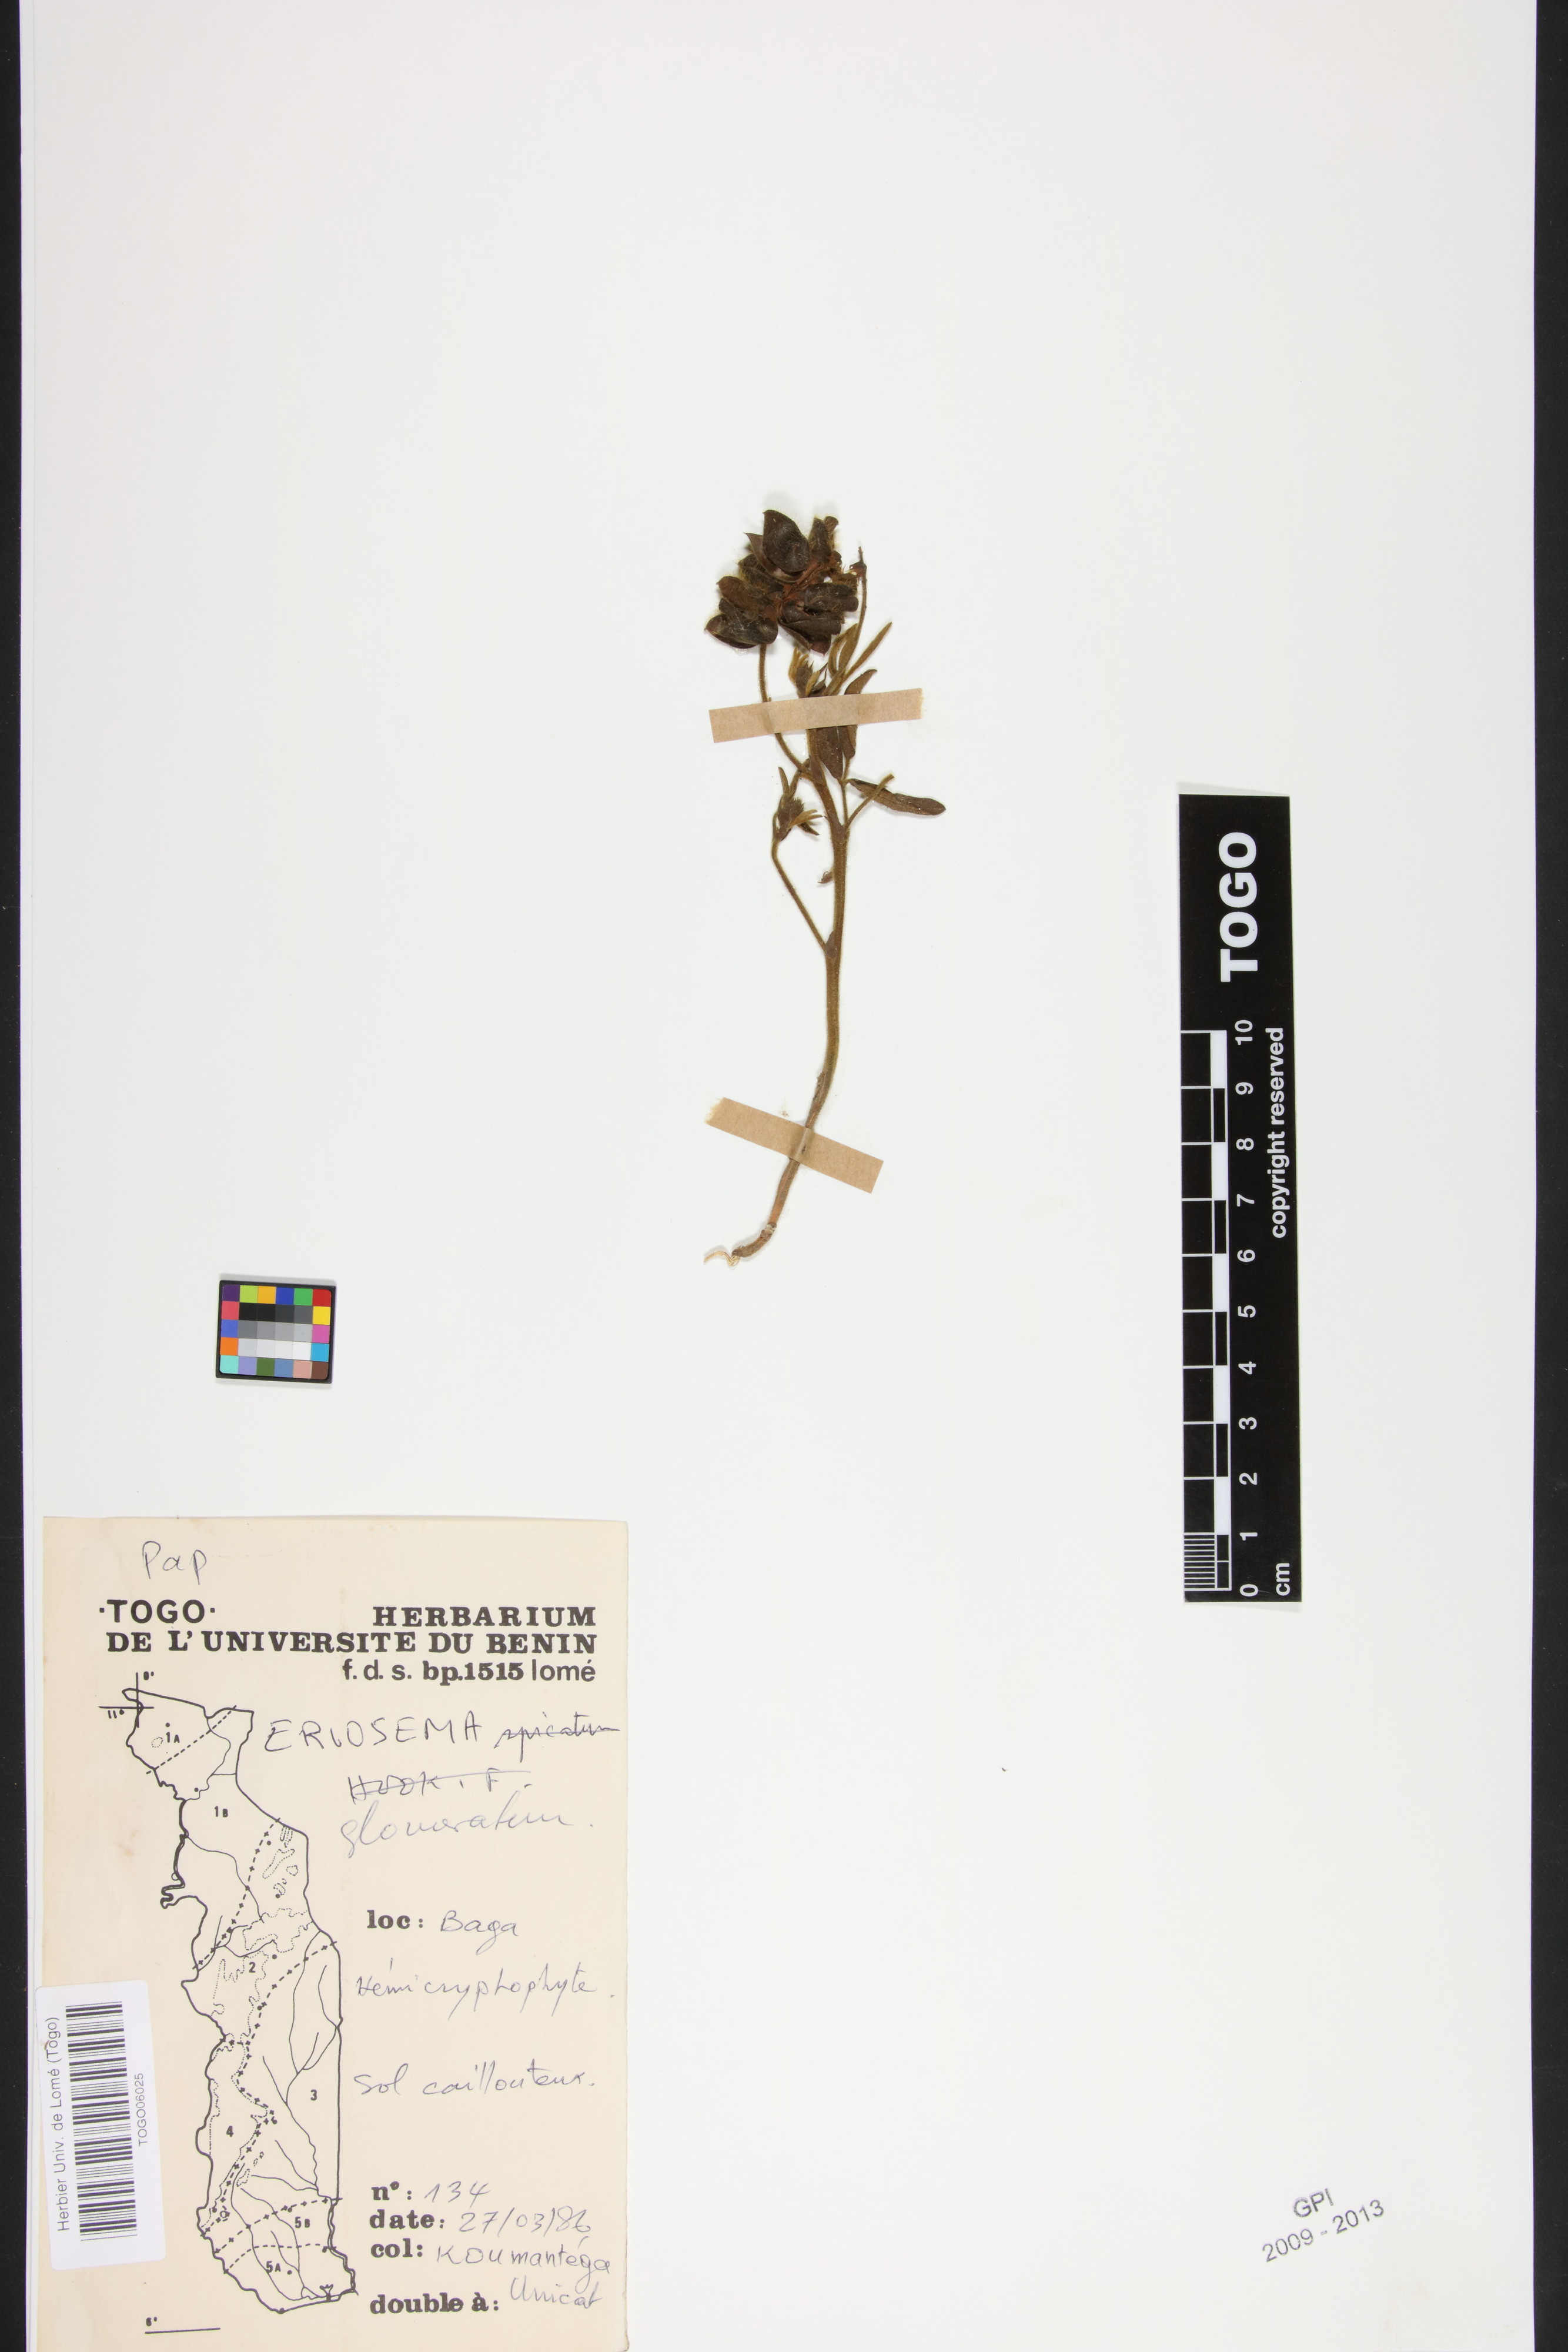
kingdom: Plantae
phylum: Tracheophyta
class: Magnoliopsida
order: Fabales
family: Fabaceae
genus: Eriosema
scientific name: Eriosema glomeratum
